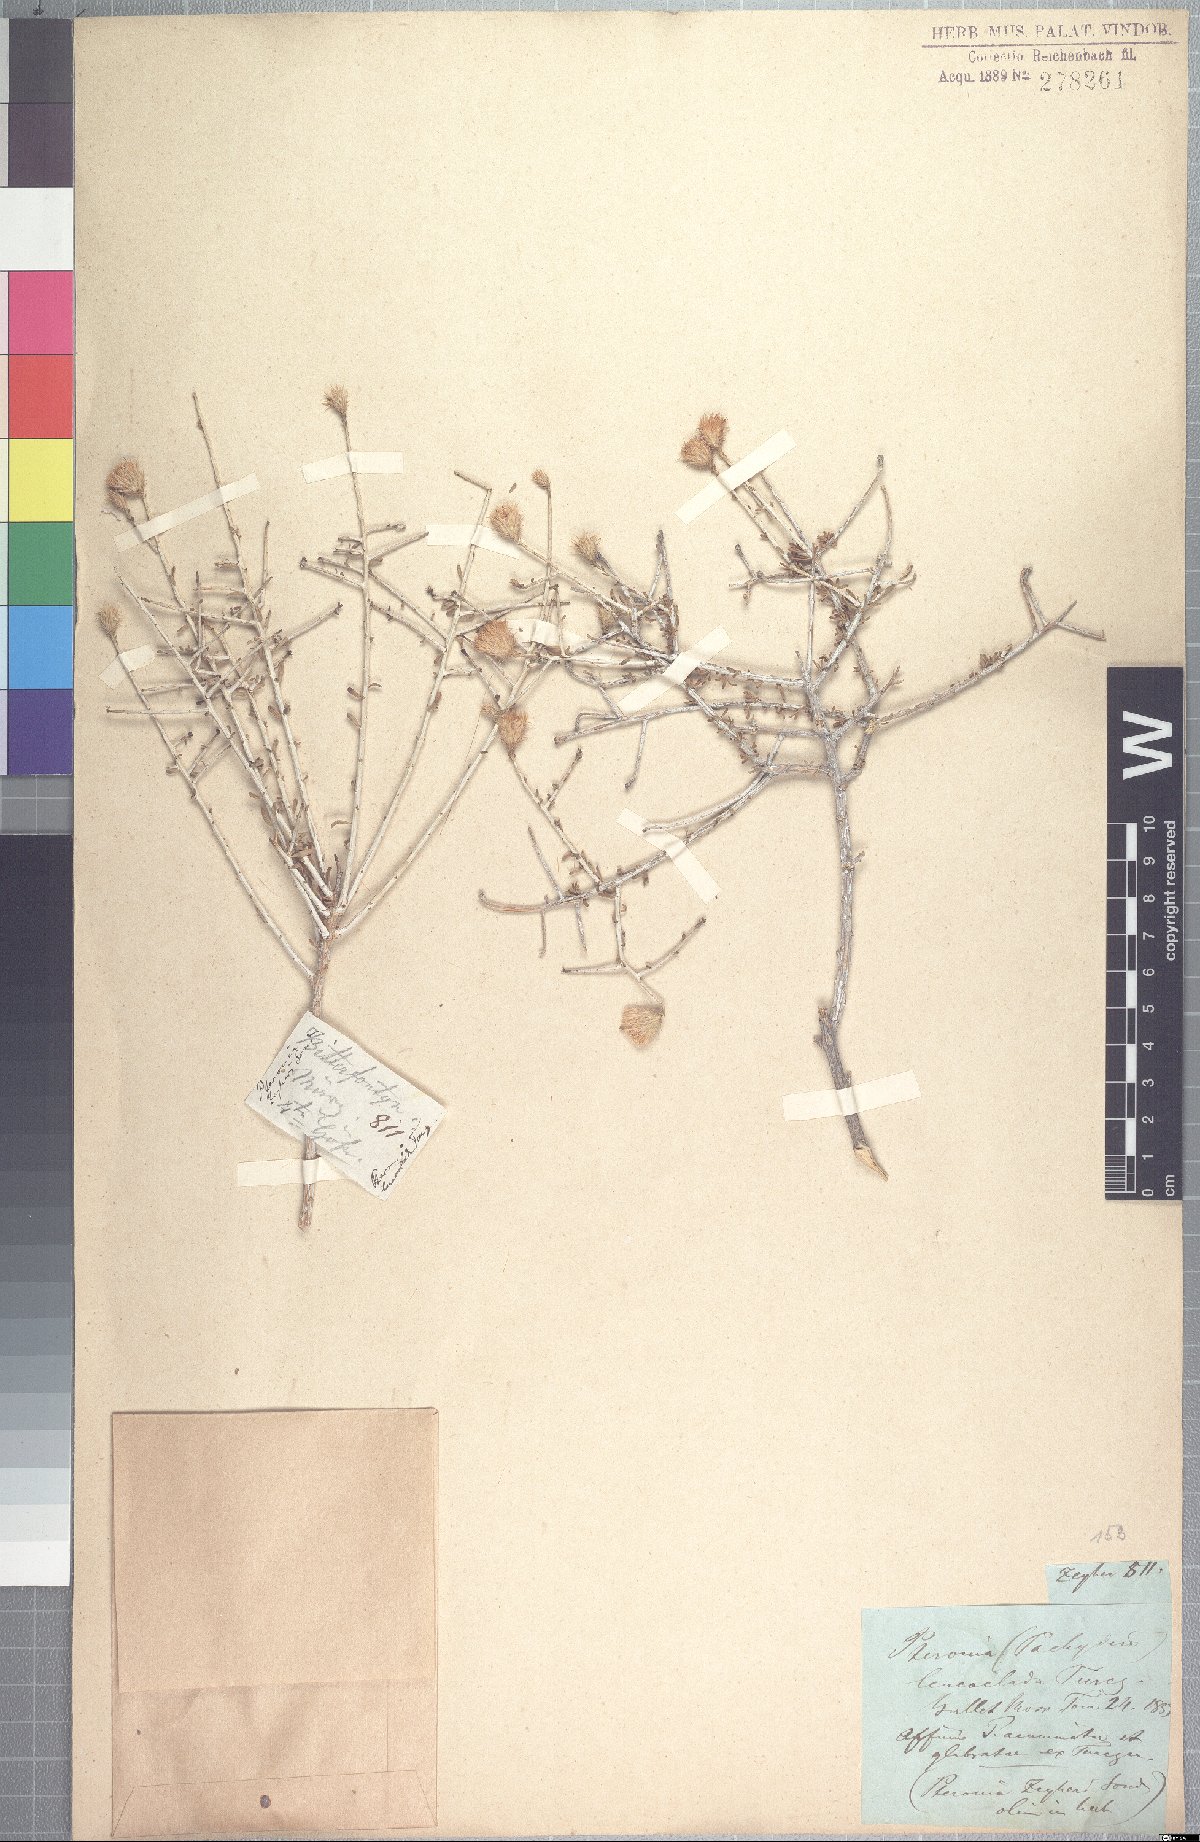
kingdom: Plantae
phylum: Tracheophyta
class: Magnoliopsida
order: Asterales
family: Asteraceae
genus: Pteronia
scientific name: Pteronia leucoclada
